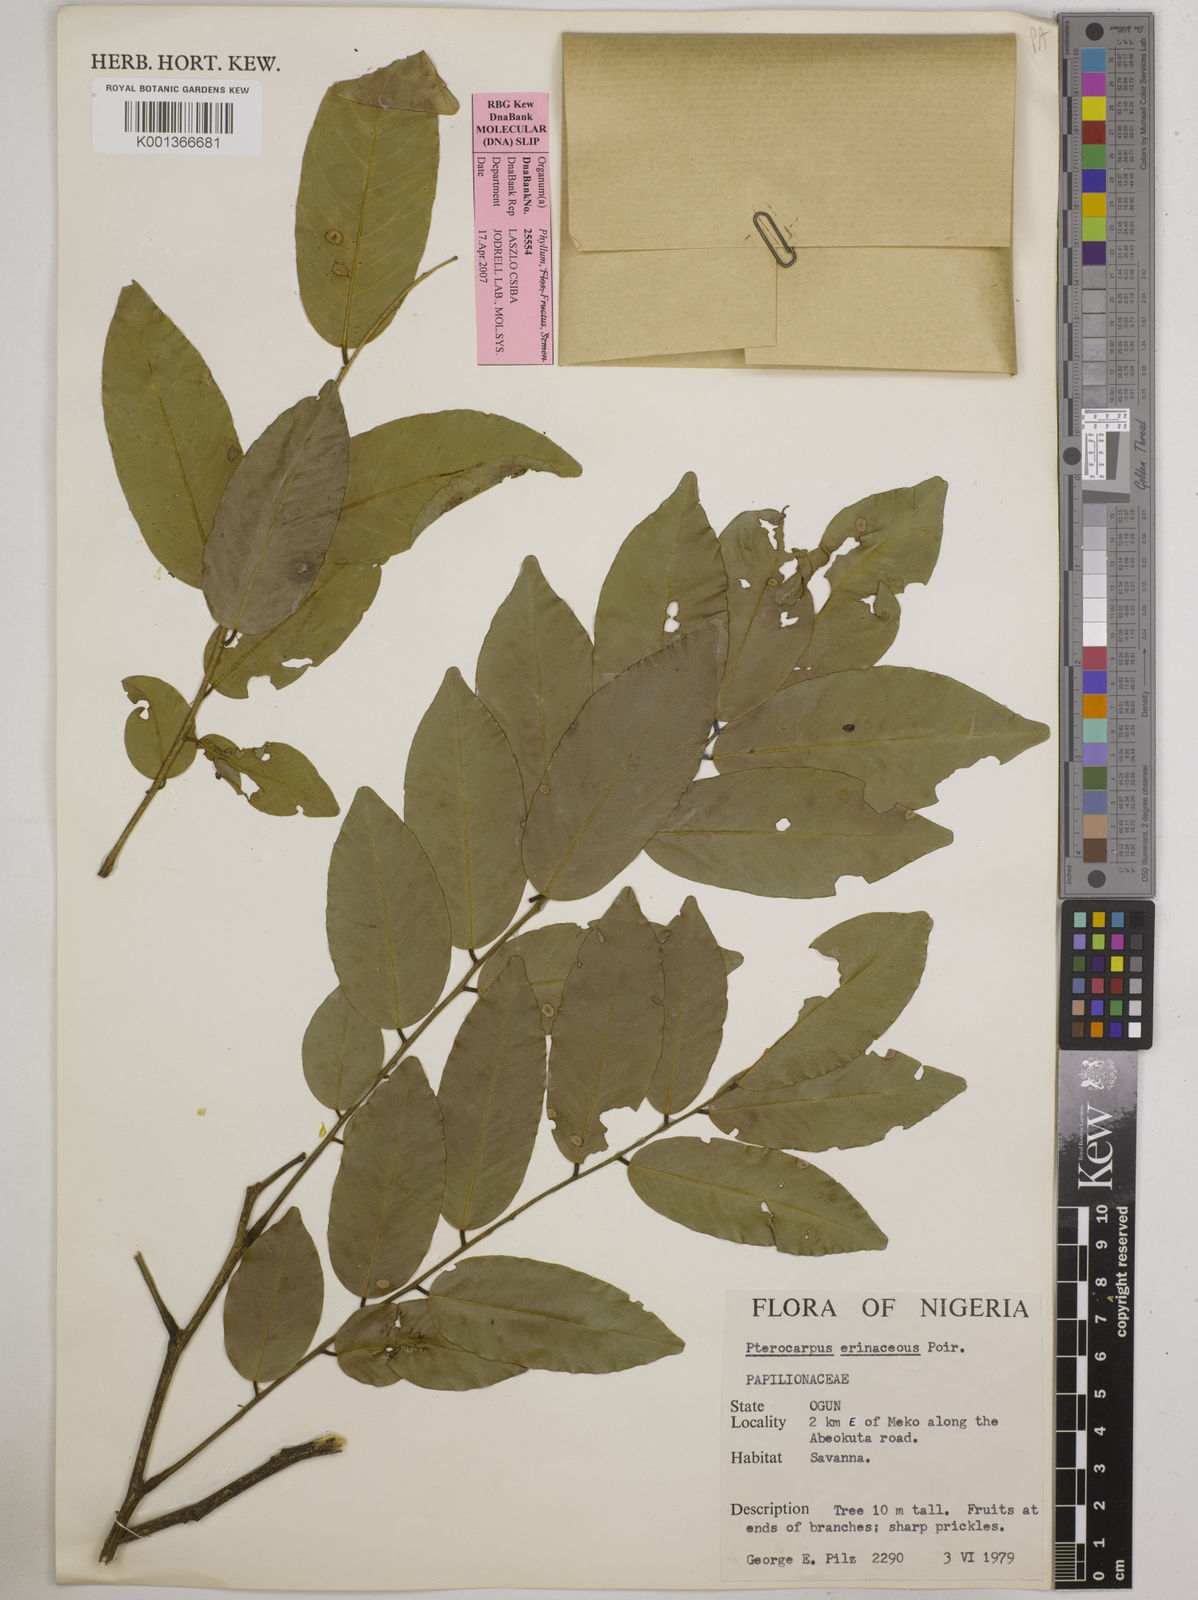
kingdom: Plantae
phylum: Tracheophyta
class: Magnoliopsida
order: Fabales
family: Fabaceae
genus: Pterocarpus
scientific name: Pterocarpus erinaceus
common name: African rosewood
